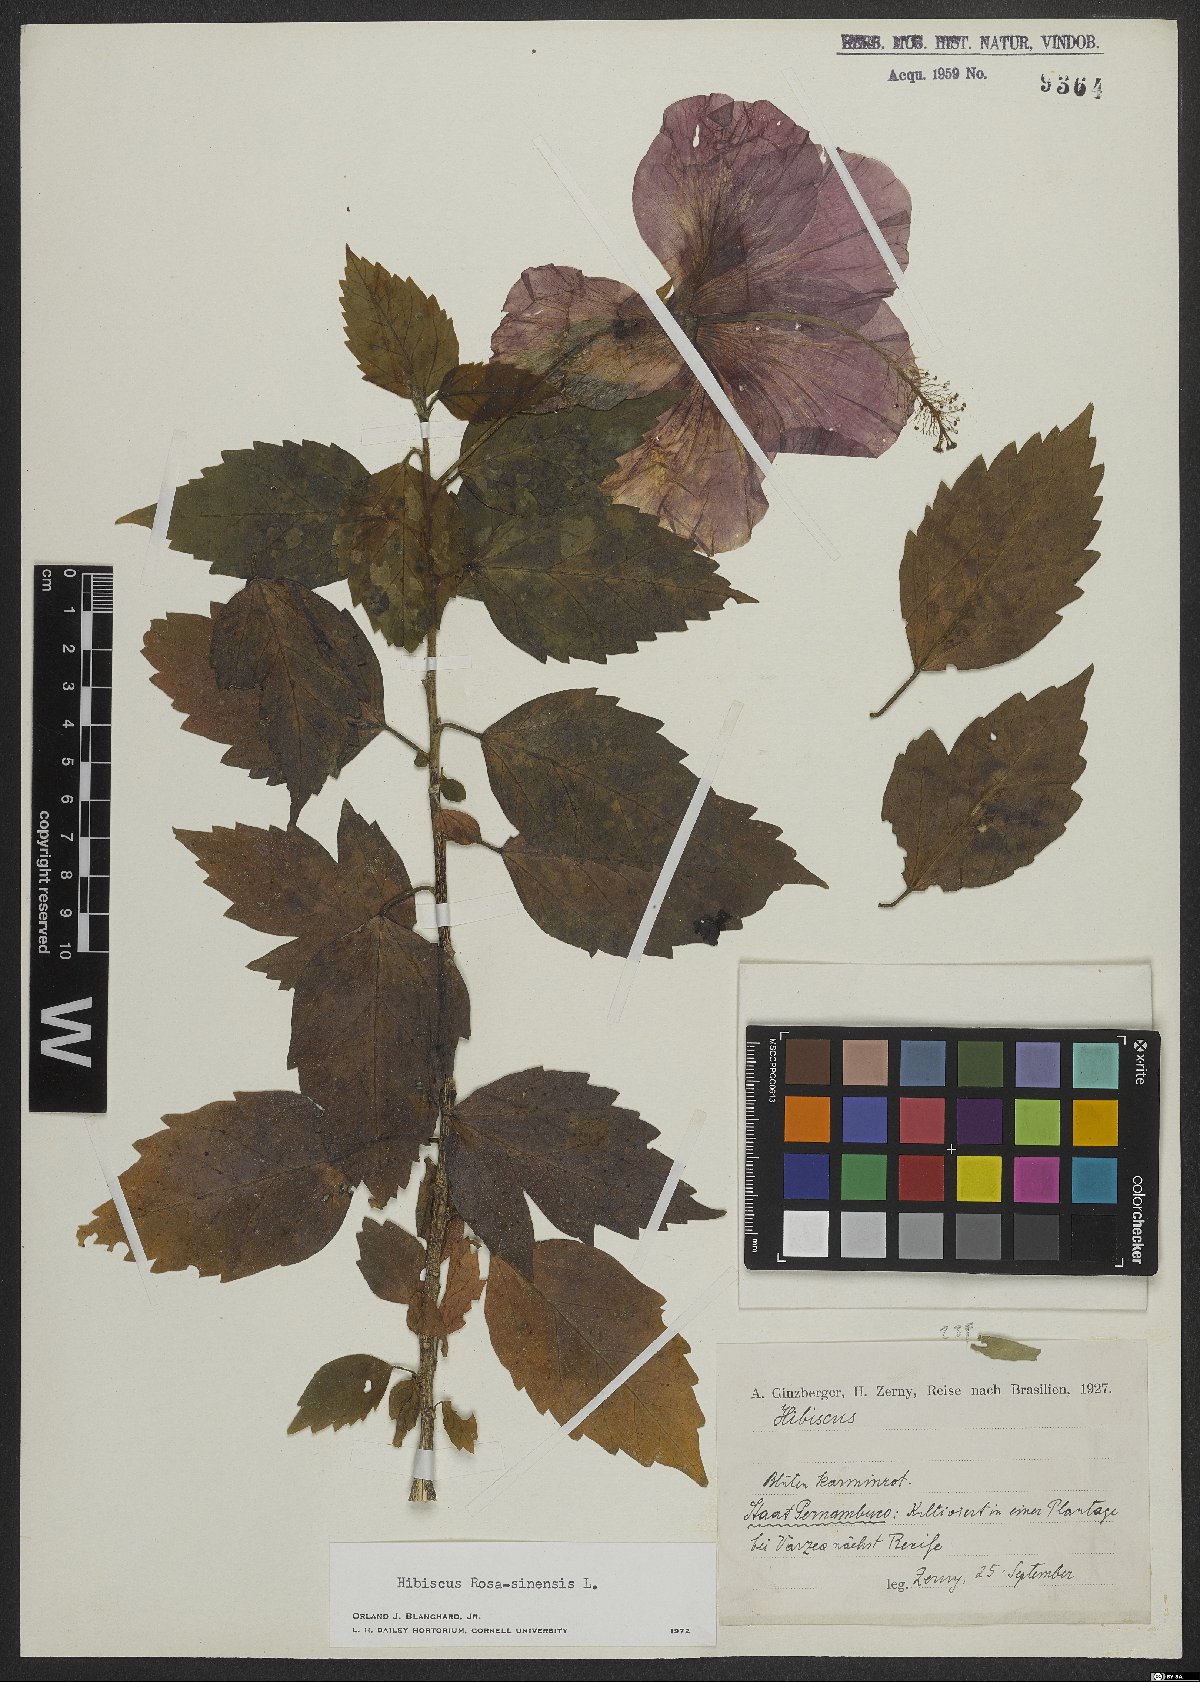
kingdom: Plantae
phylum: Tracheophyta
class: Magnoliopsida
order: Malvales
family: Malvaceae
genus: Hibiscus
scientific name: Hibiscus rosa-sinensis
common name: Hibiscus
